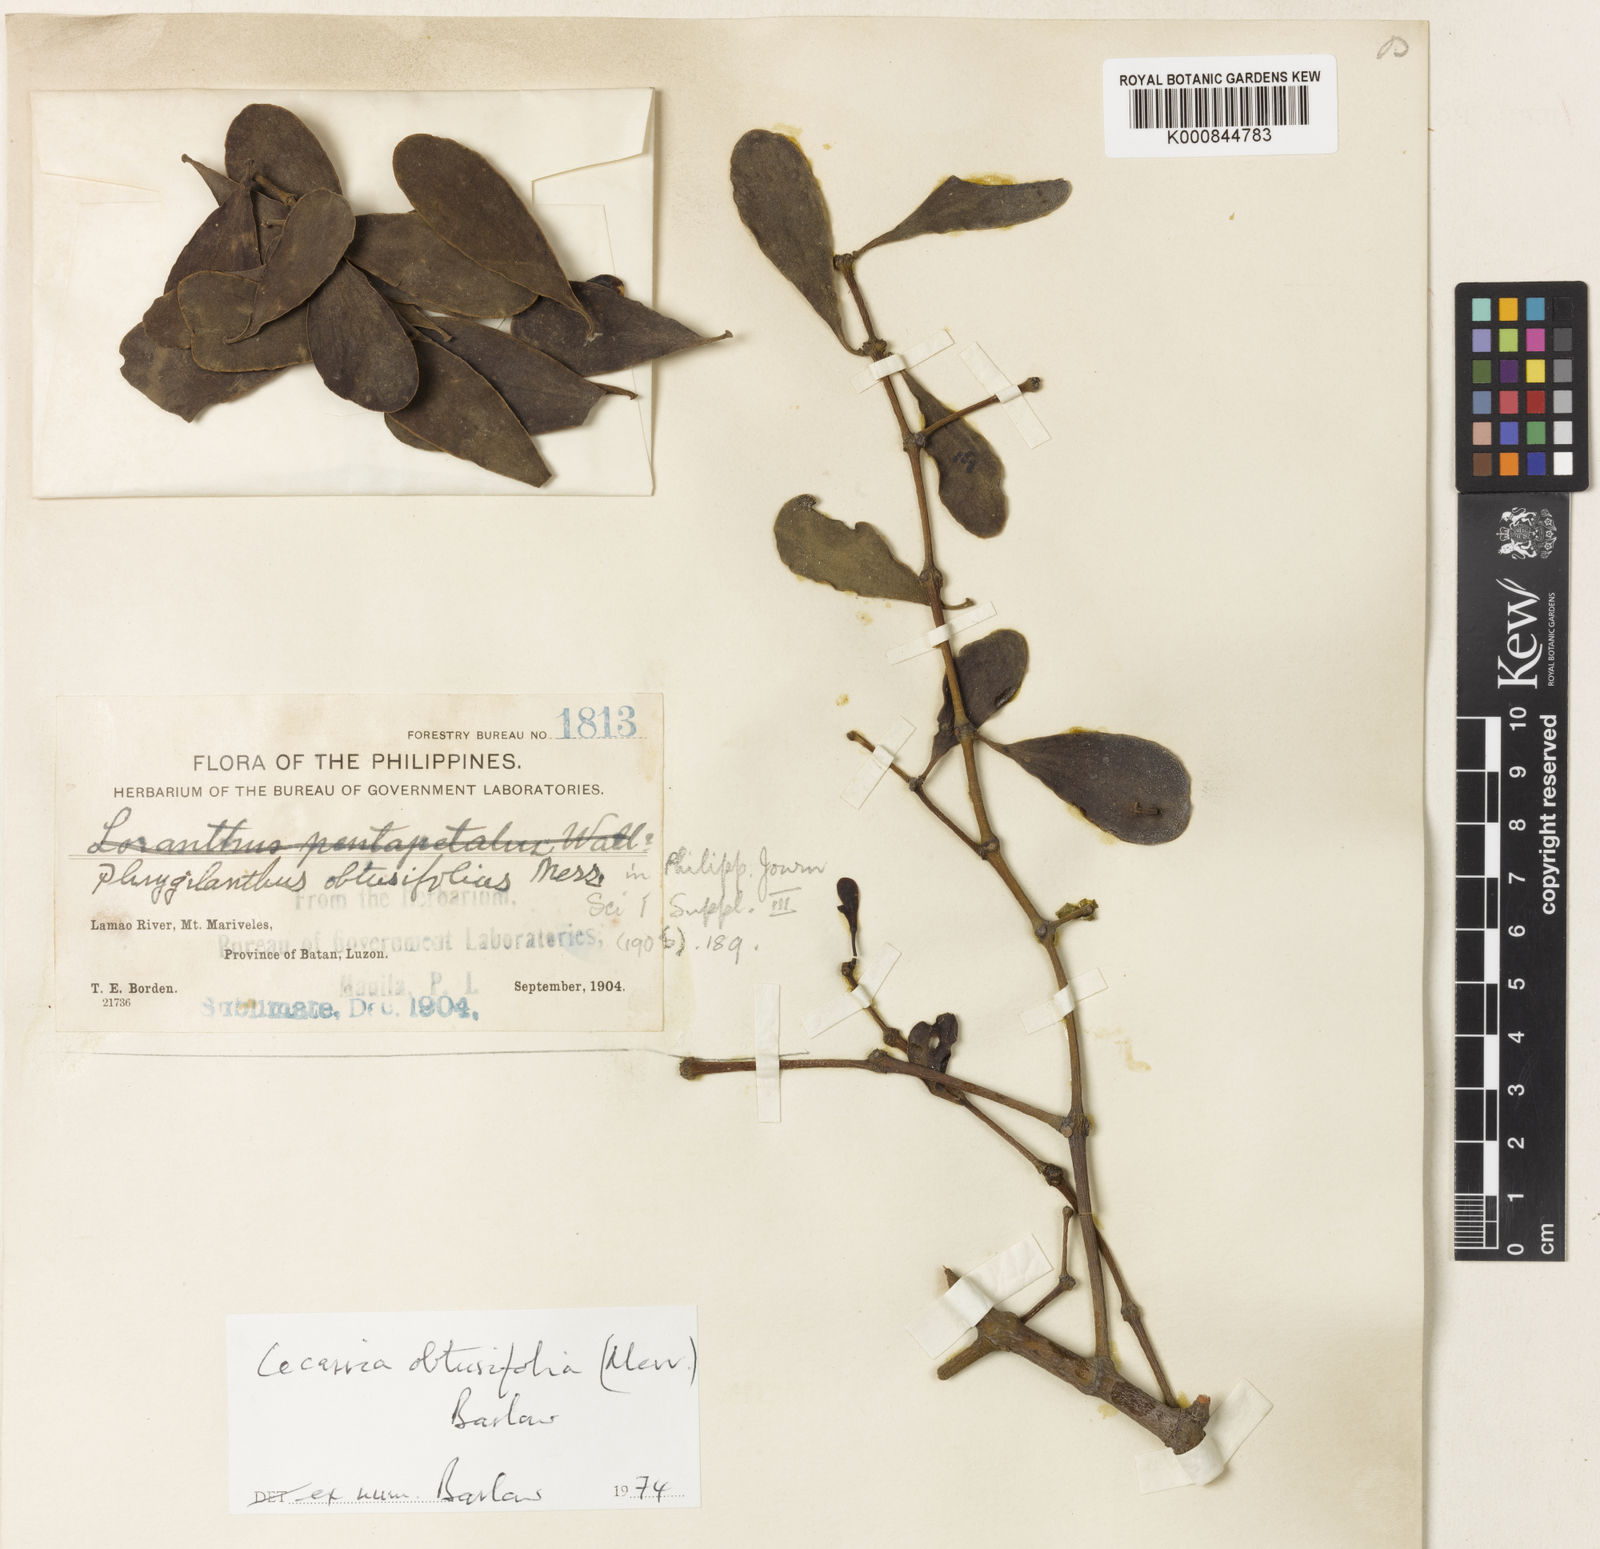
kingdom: Plantae
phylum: Tracheophyta
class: Magnoliopsida
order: Santalales
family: Loranthaceae
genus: Cecarria
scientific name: Cecarria obtusifolia
